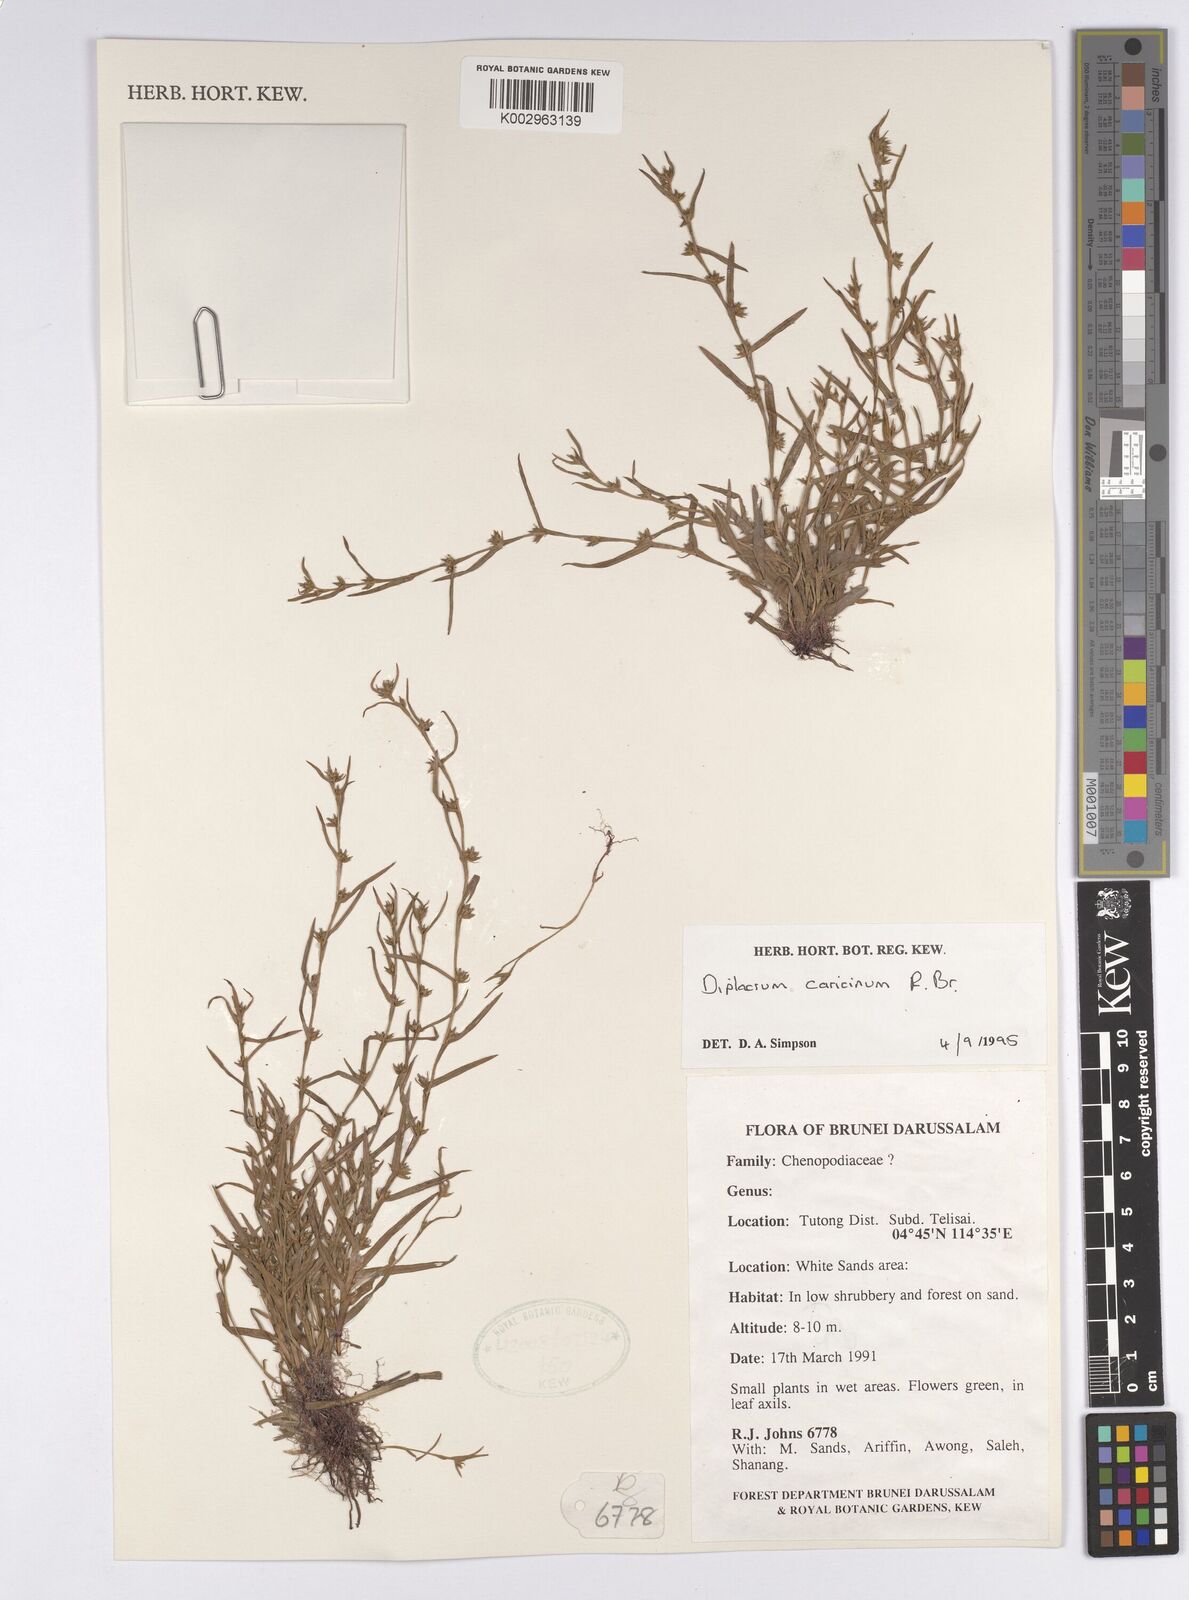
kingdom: Plantae
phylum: Tracheophyta
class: Liliopsida
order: Poales
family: Cyperaceae
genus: Diplacrum
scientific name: Diplacrum caricinum
